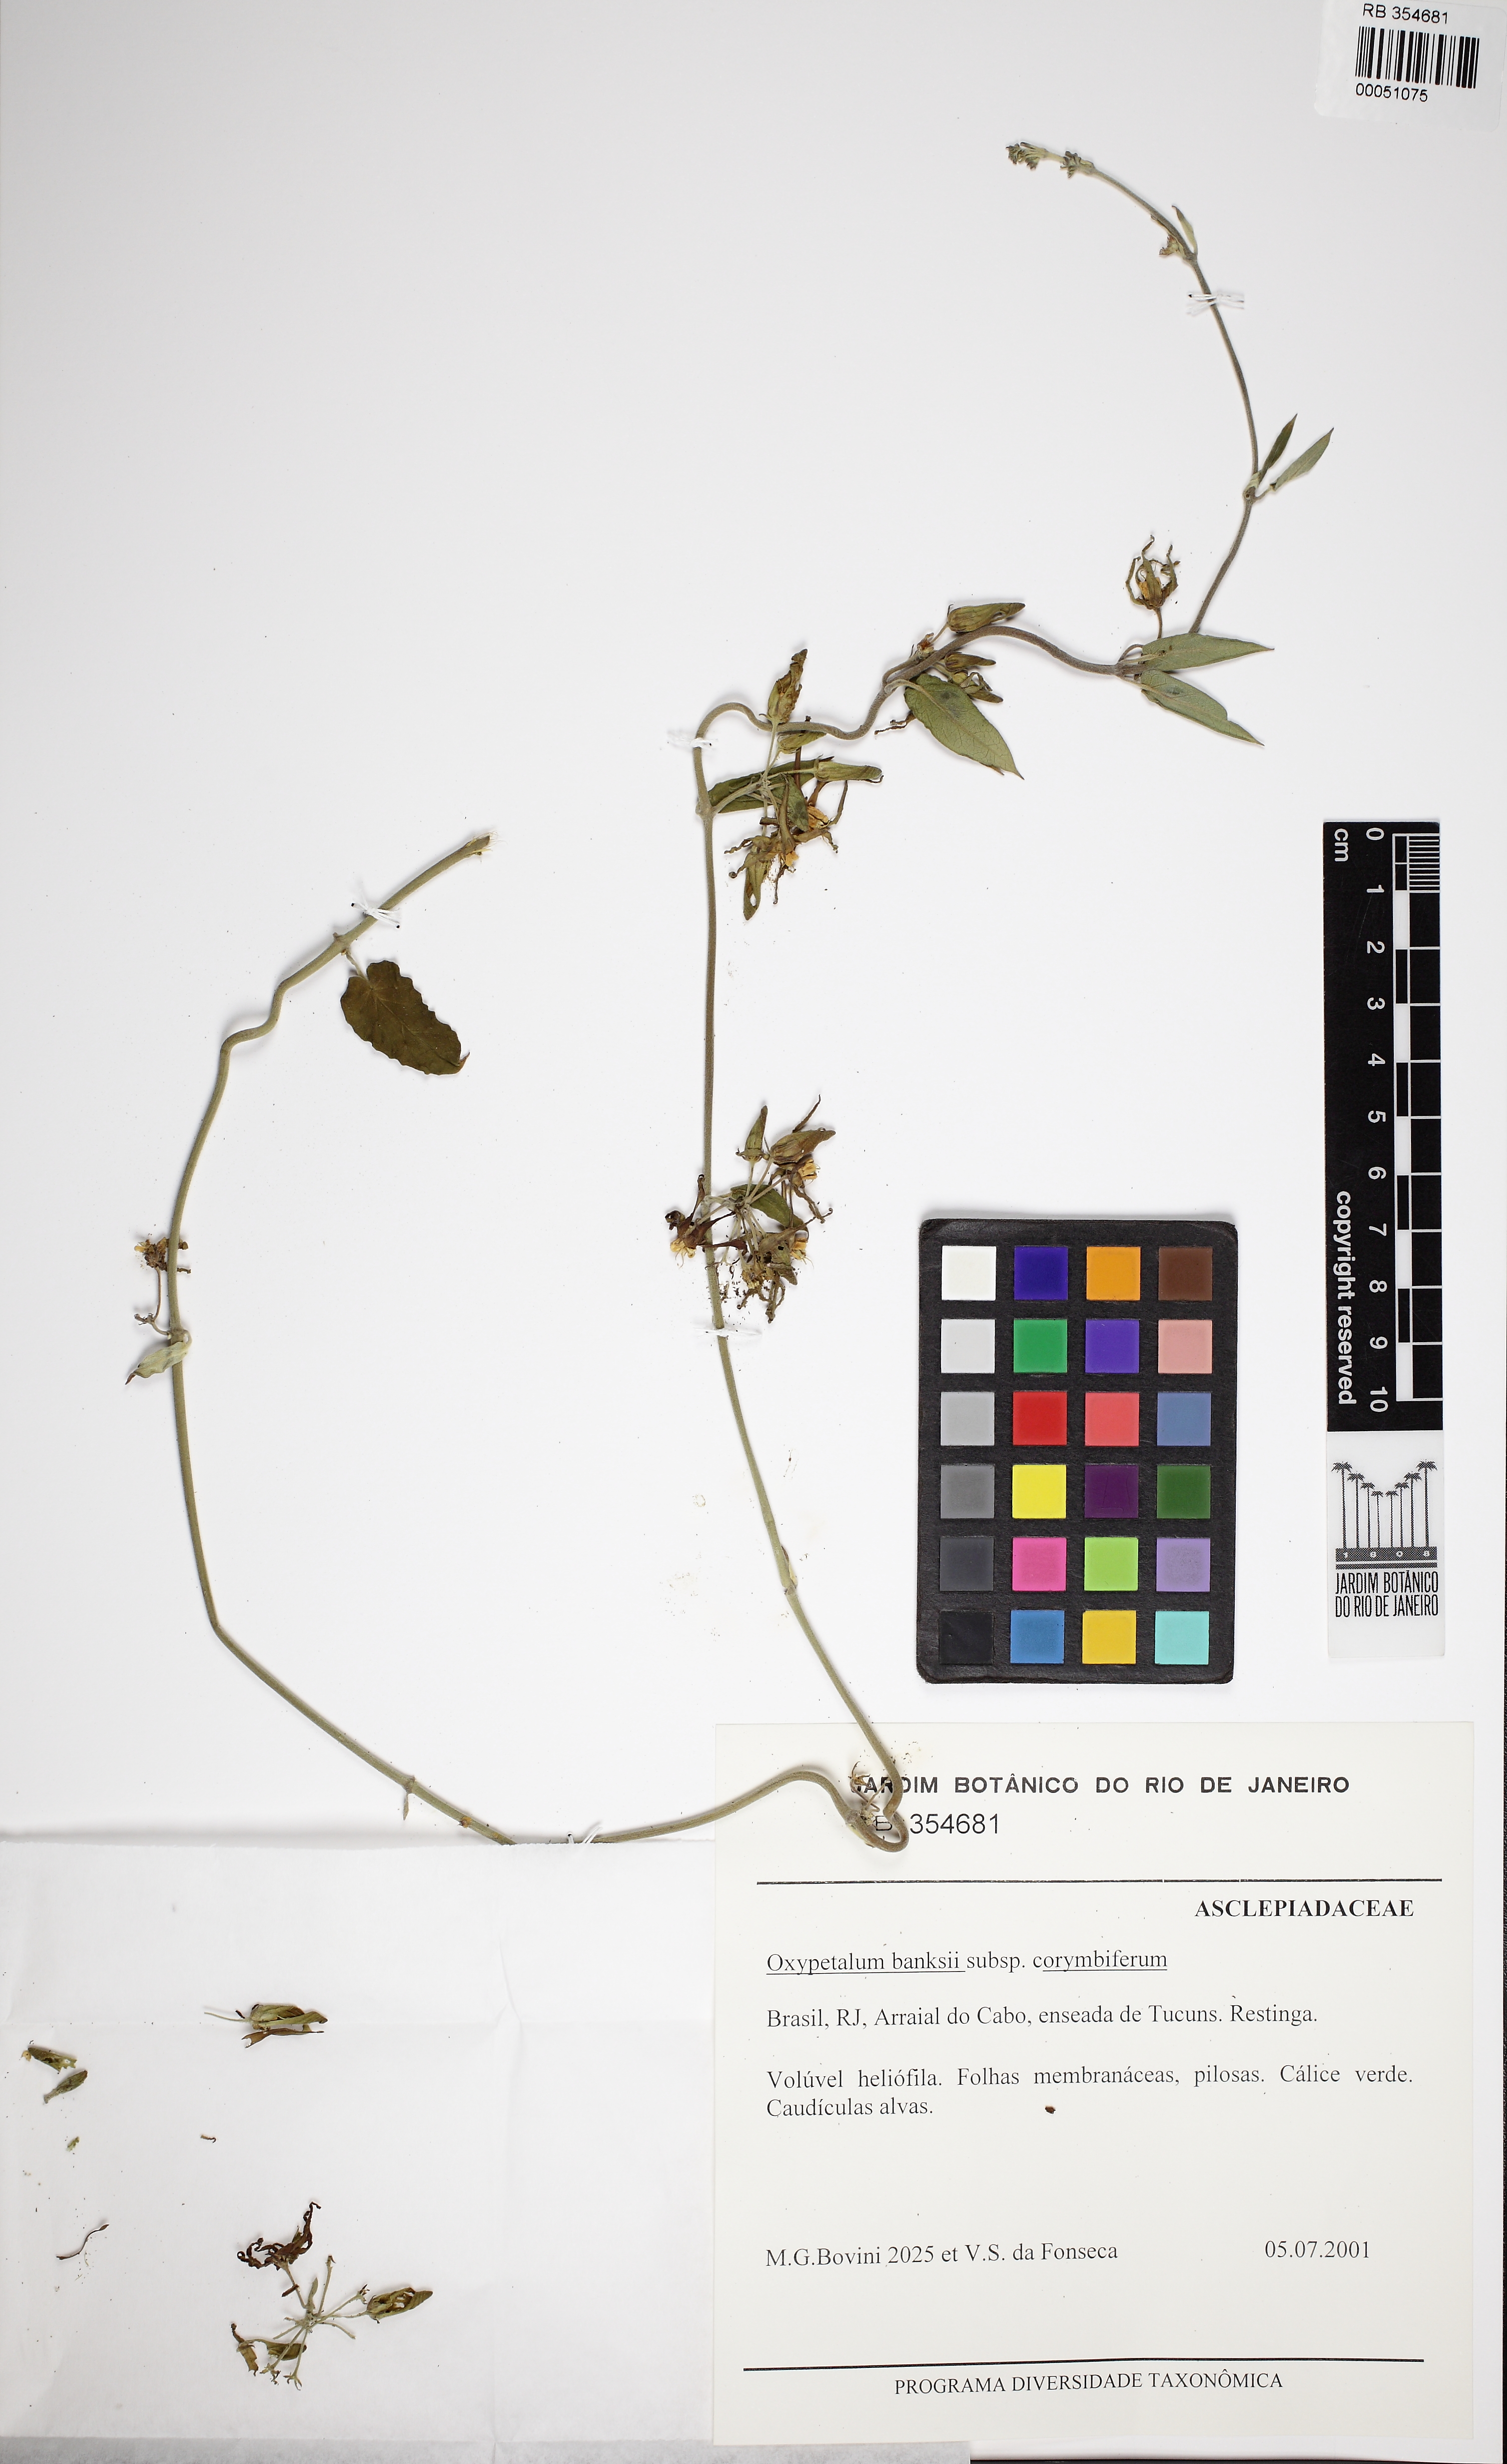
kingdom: Plantae
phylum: Tracheophyta
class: Magnoliopsida
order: Gentianales
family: Apocynaceae
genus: Oxypetalum
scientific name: Oxypetalum banksii
